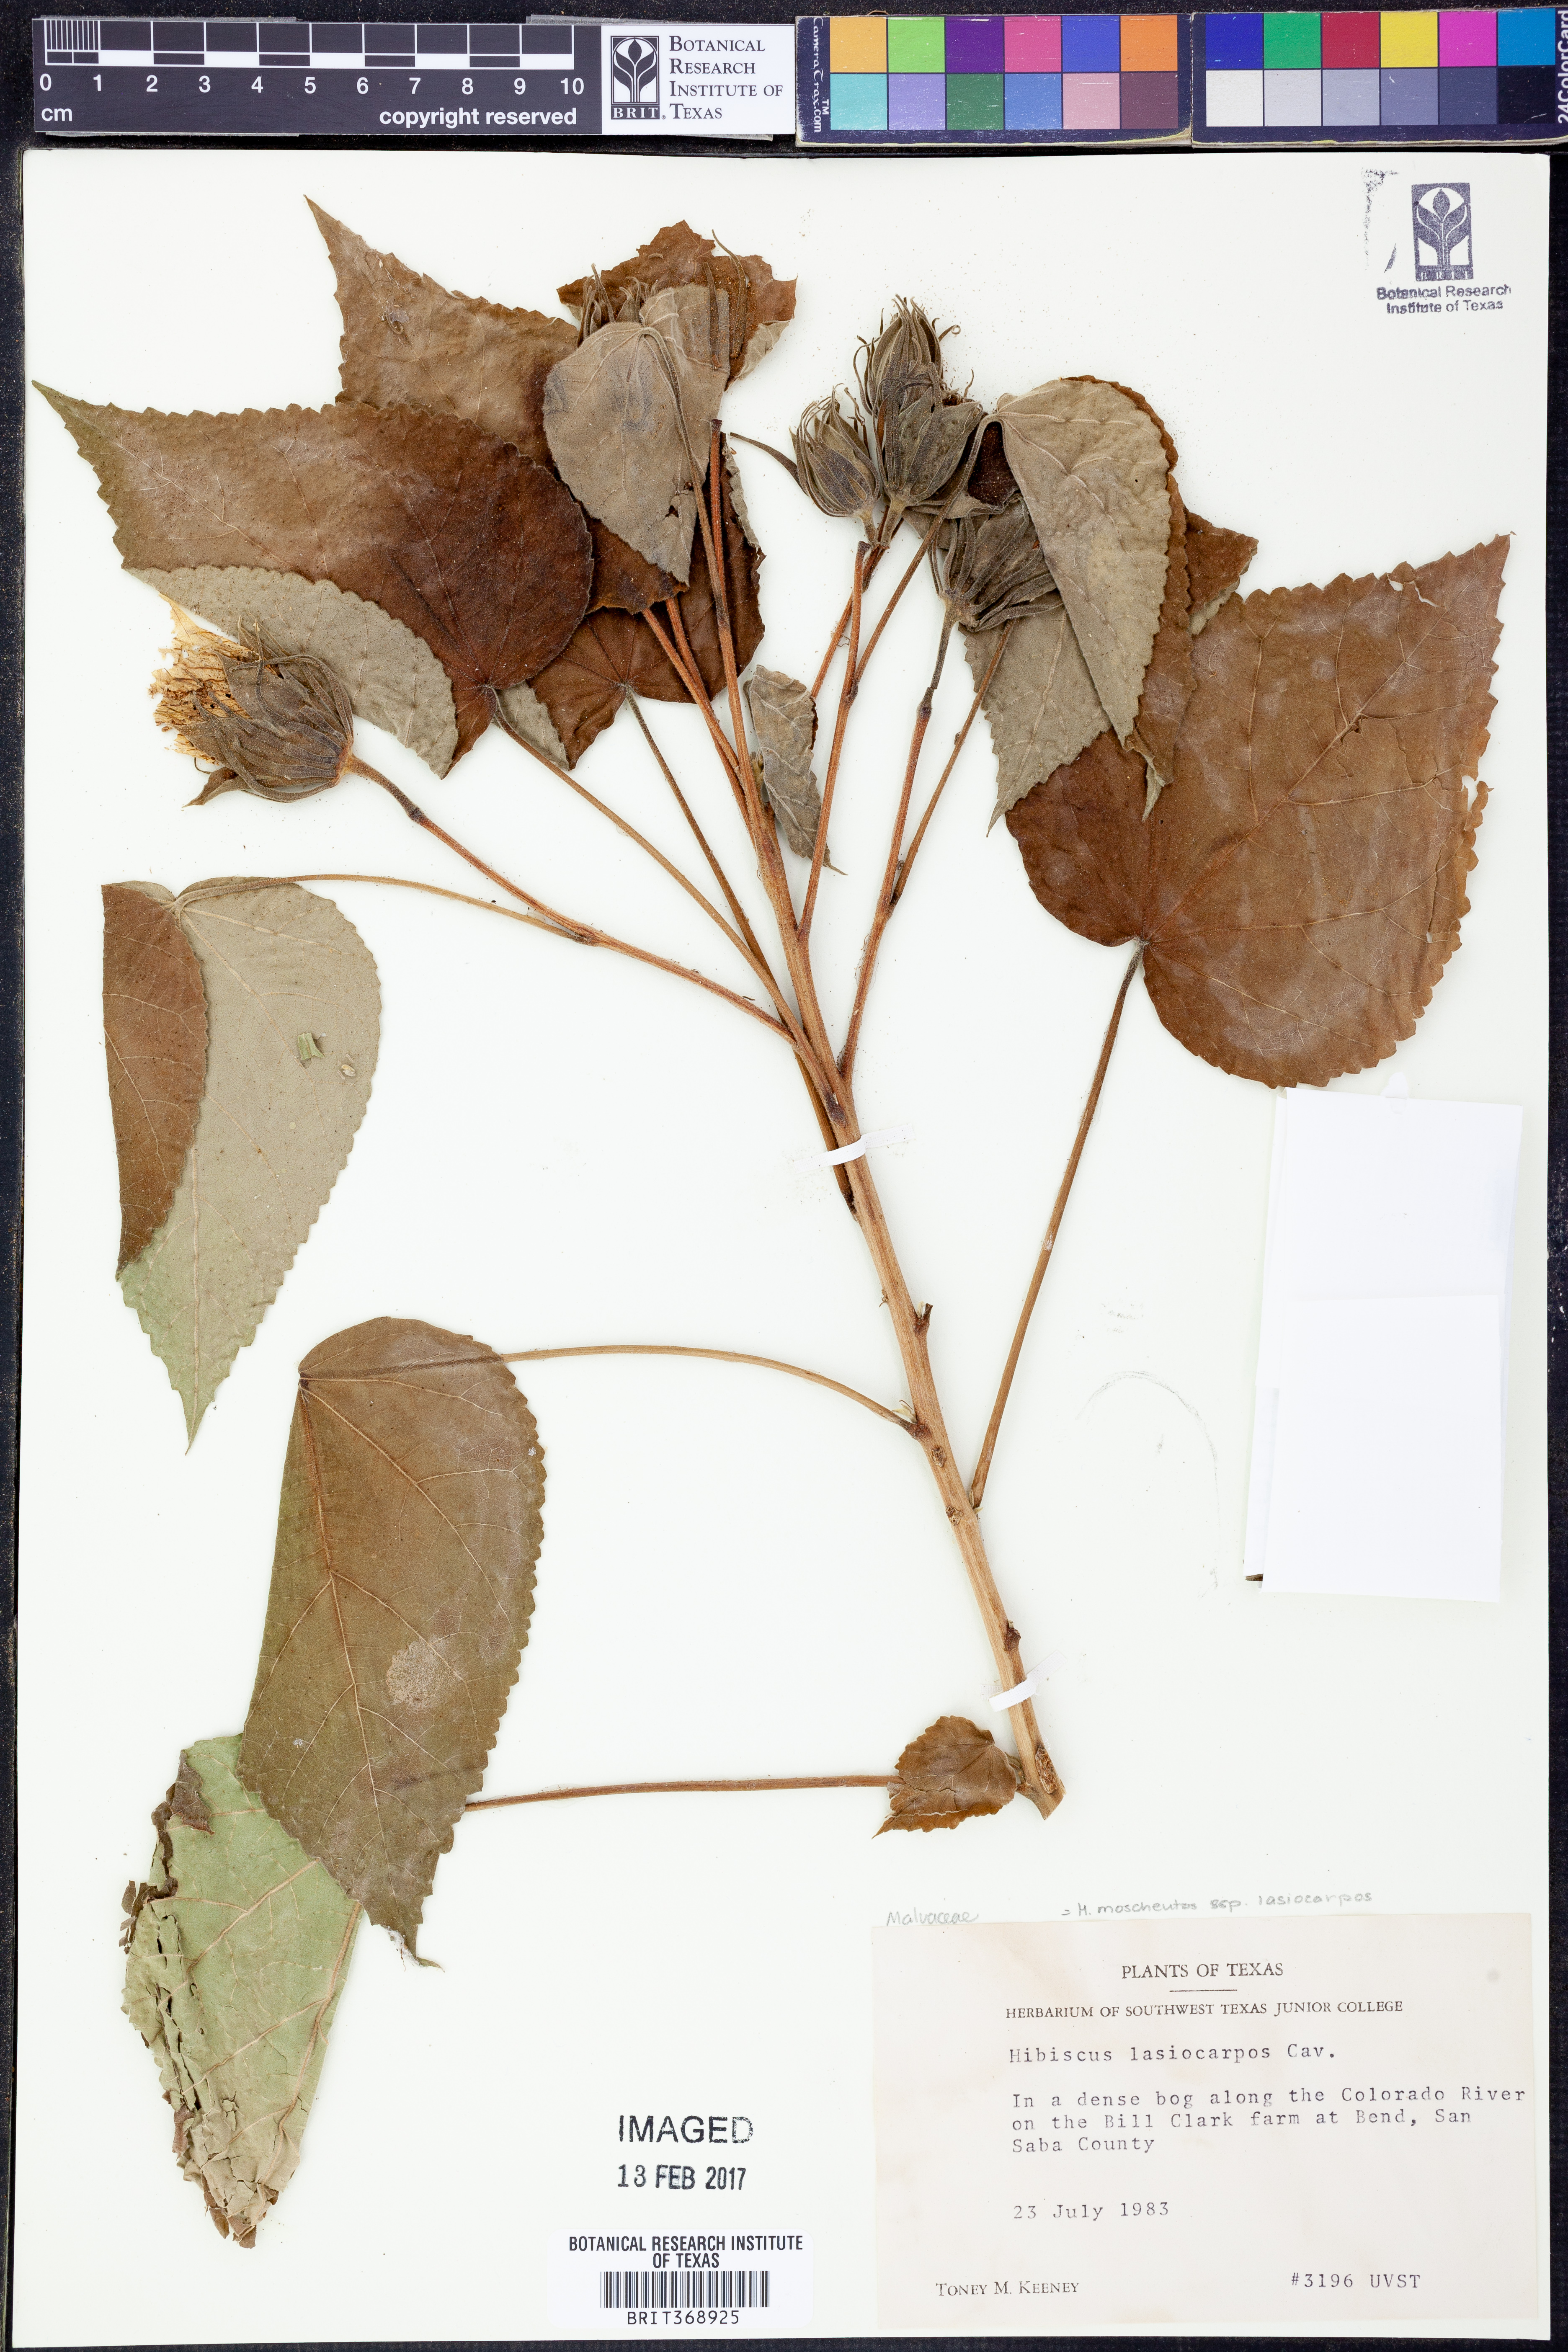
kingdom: Plantae
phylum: Tracheophyta
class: Magnoliopsida
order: Malvales
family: Malvaceae
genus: Hibiscus
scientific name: Hibiscus moscheutos
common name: Common rose-mallow
